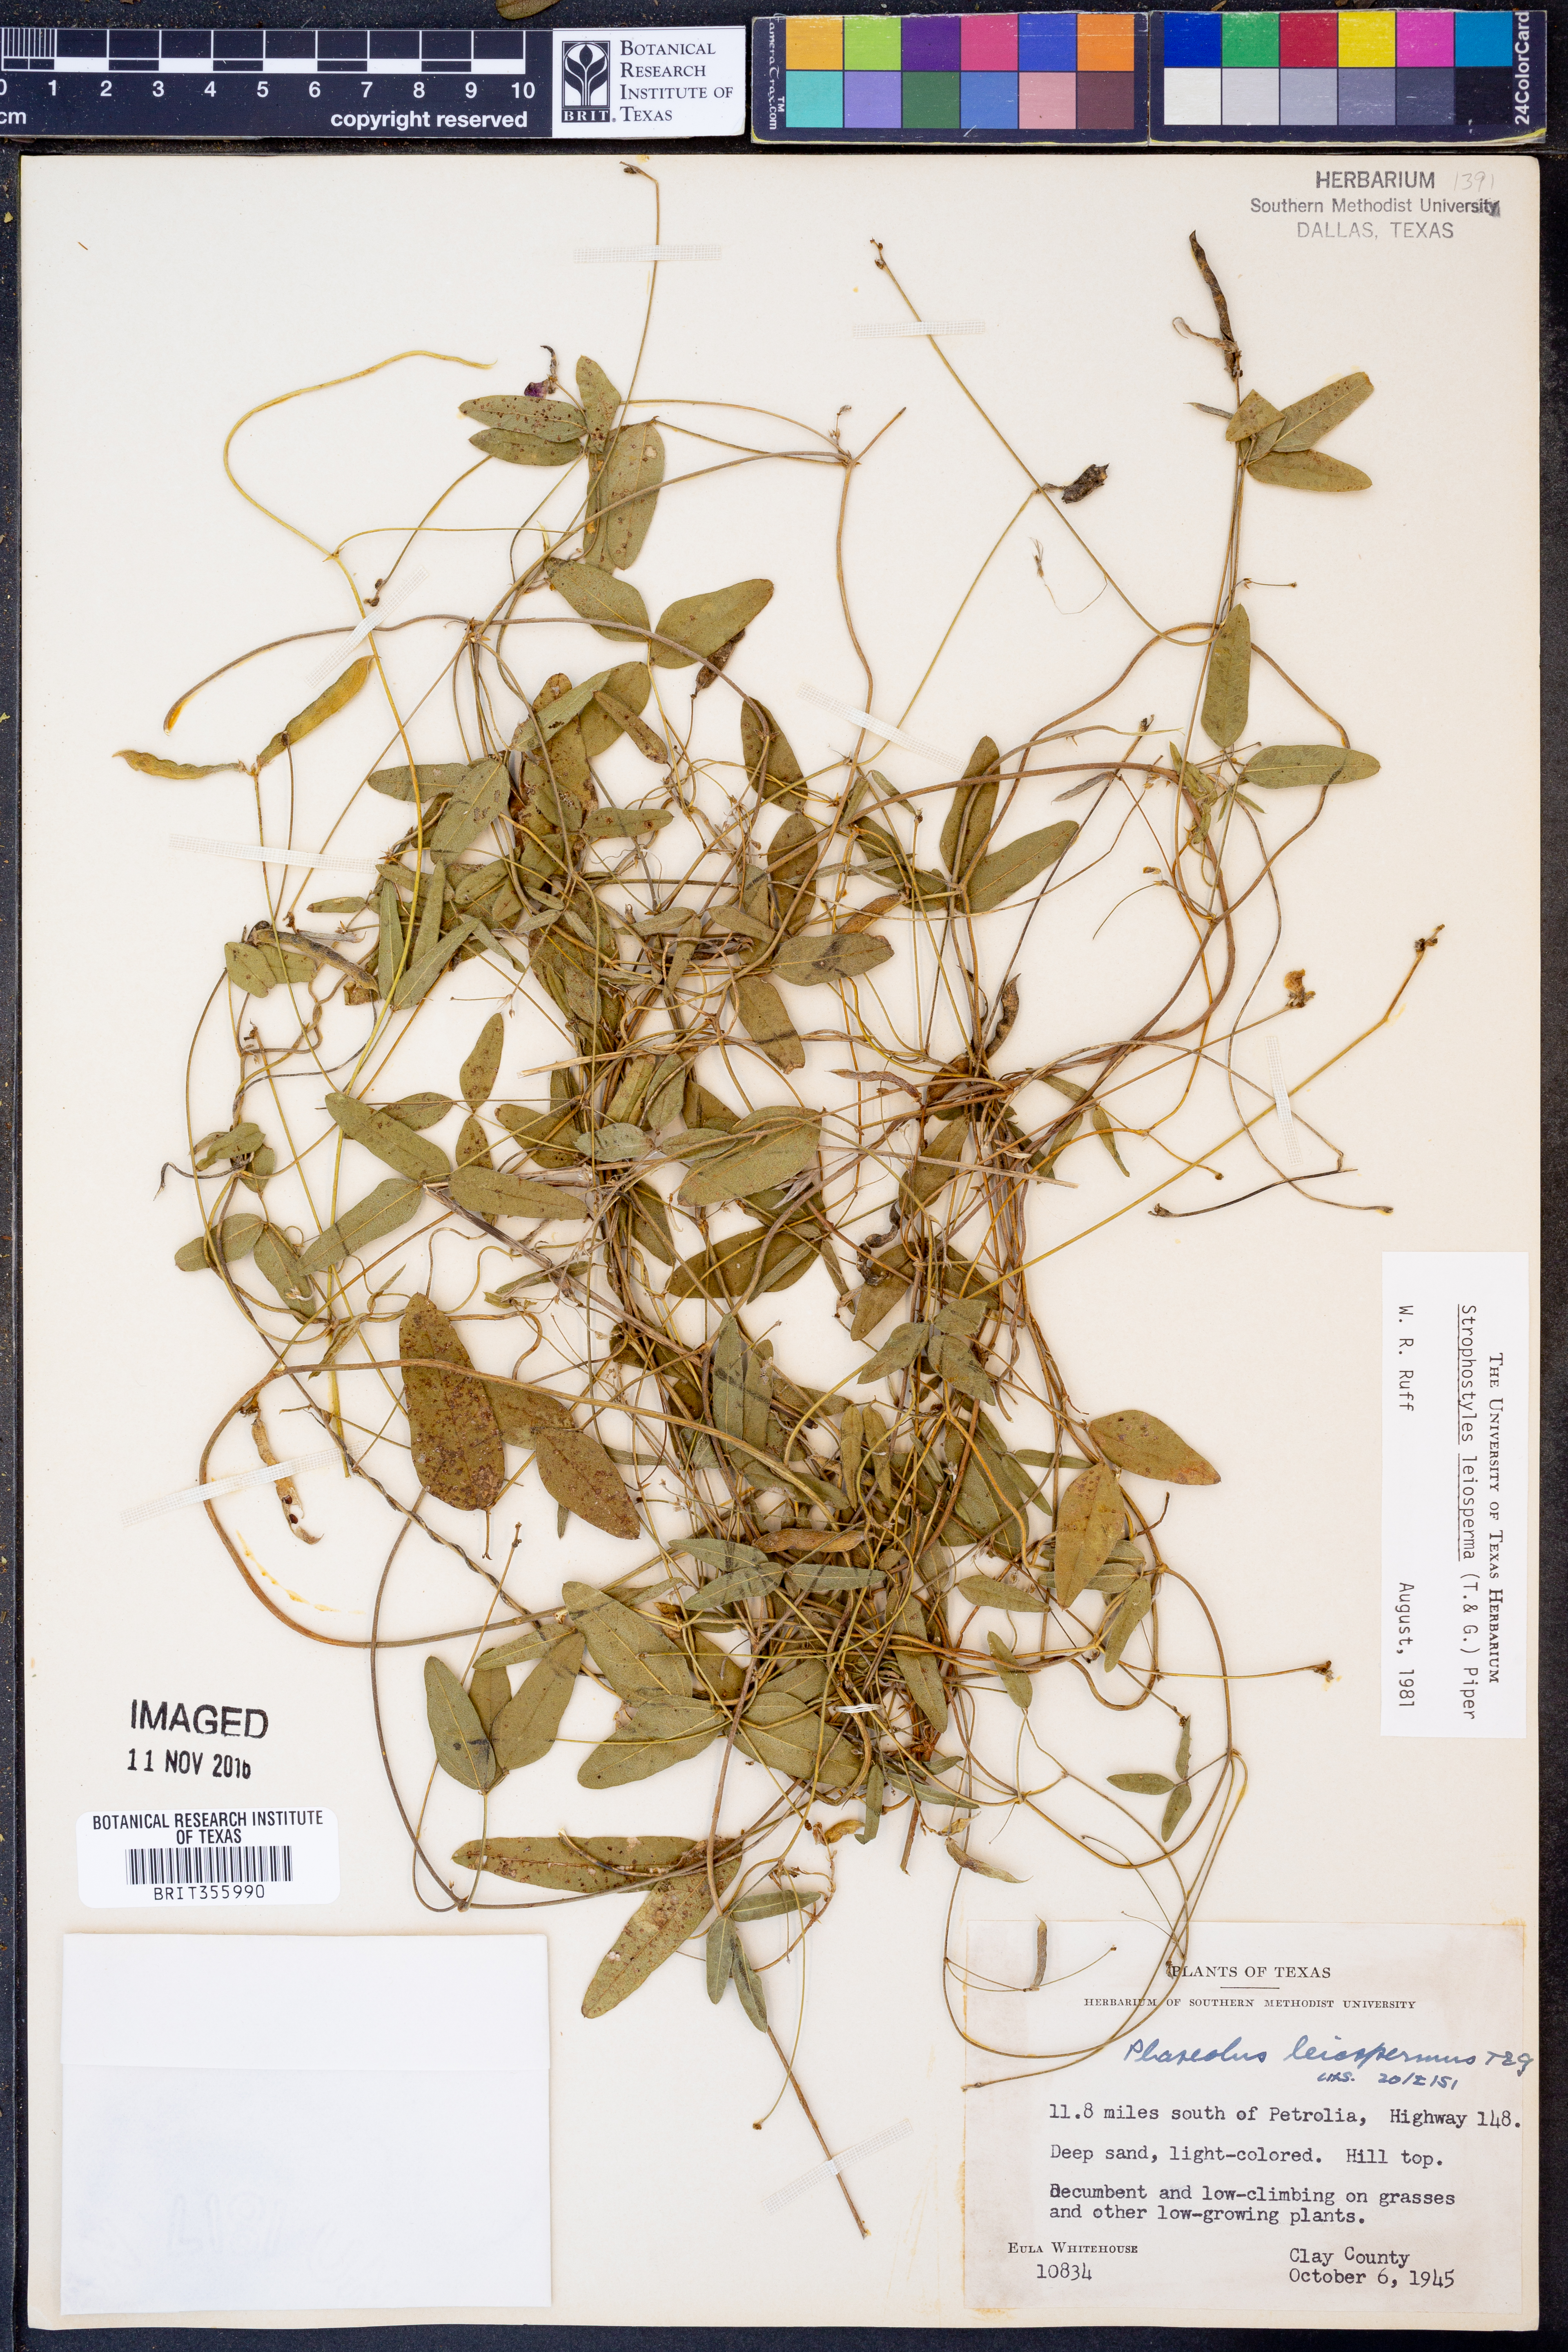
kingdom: Plantae
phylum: Tracheophyta
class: Magnoliopsida
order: Fabales
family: Fabaceae
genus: Strophostyles
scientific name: Strophostyles leiosperma
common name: Smooth-seed wild bean
